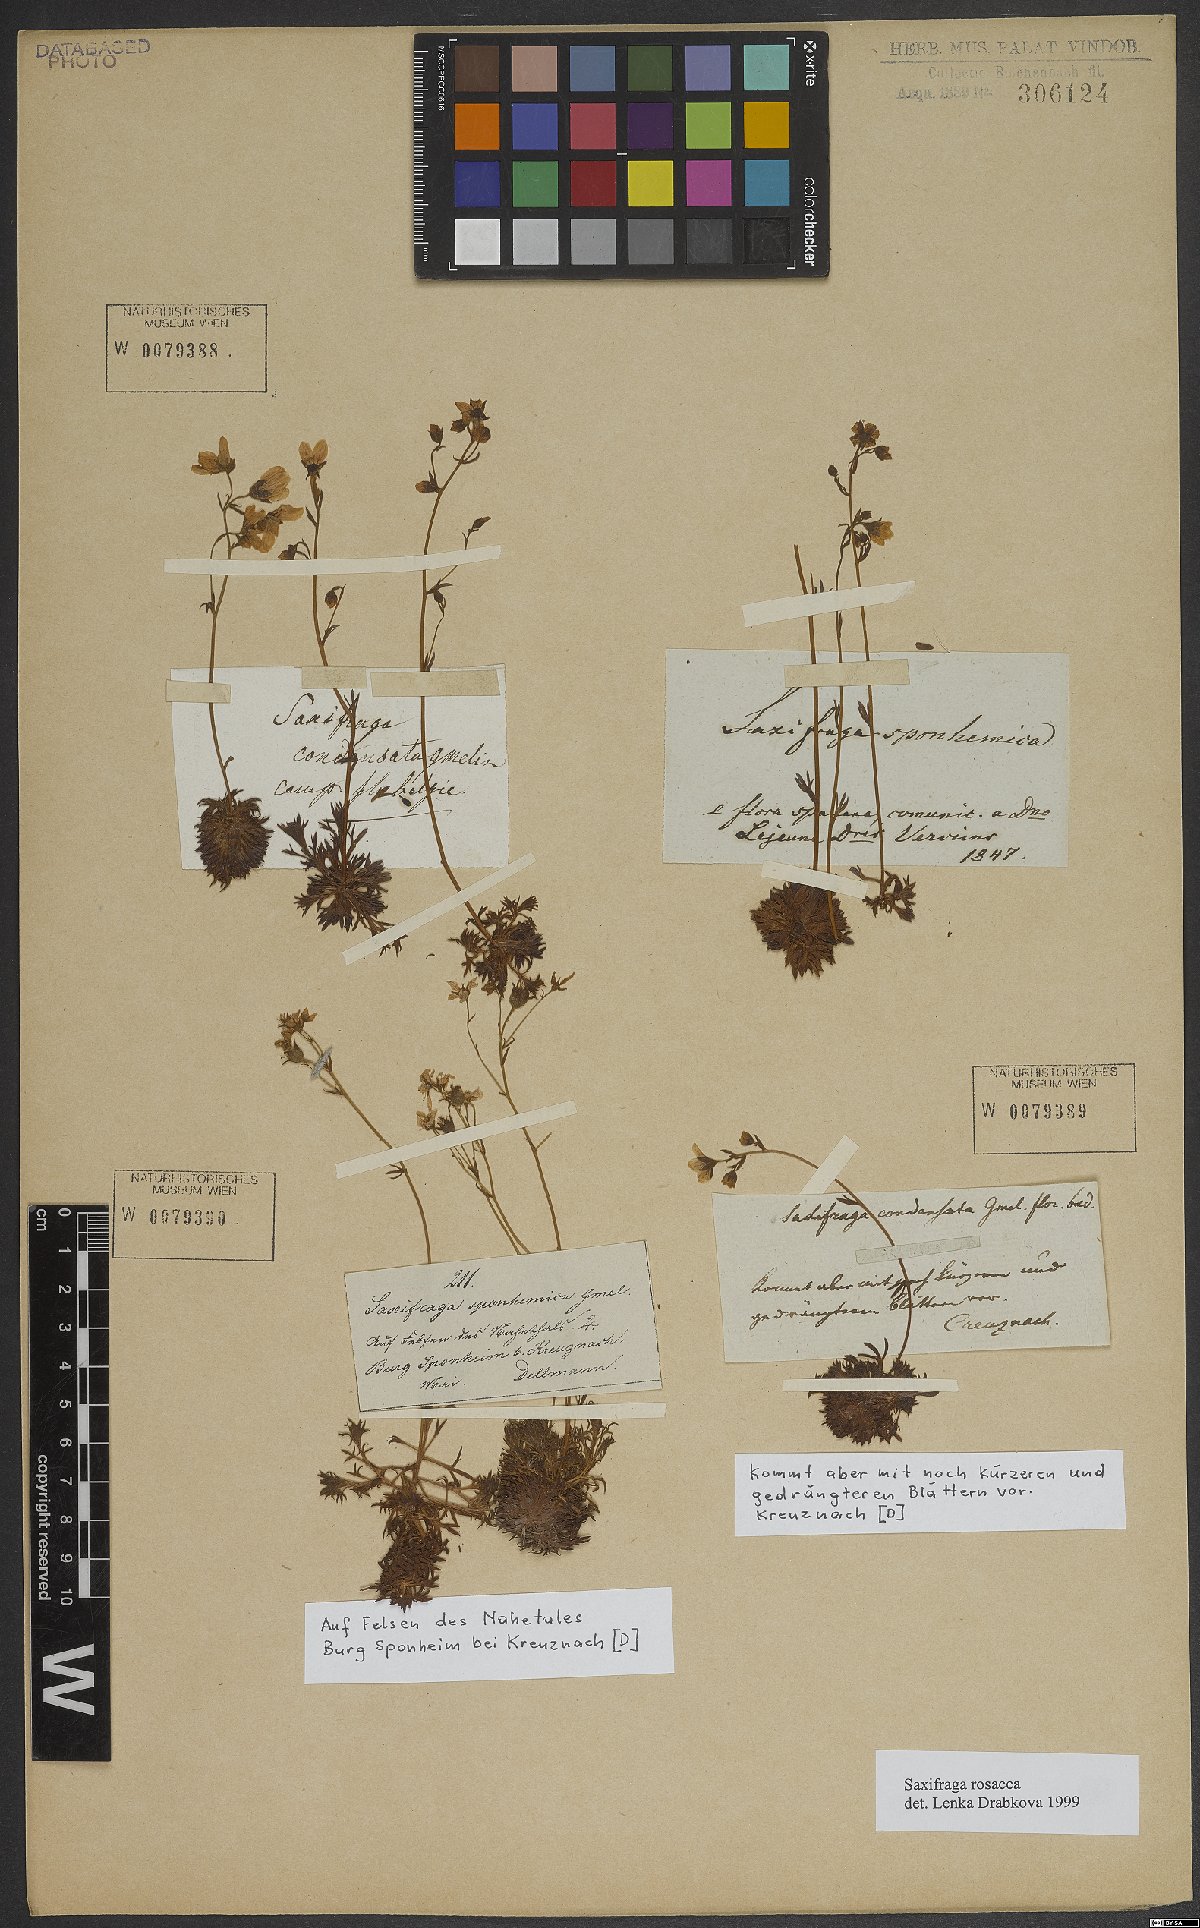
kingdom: Plantae
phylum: Tracheophyta
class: Magnoliopsida
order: Saxifragales
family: Saxifragaceae
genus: Saxifraga
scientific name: Saxifraga rosacea
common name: Irish saxifrage
